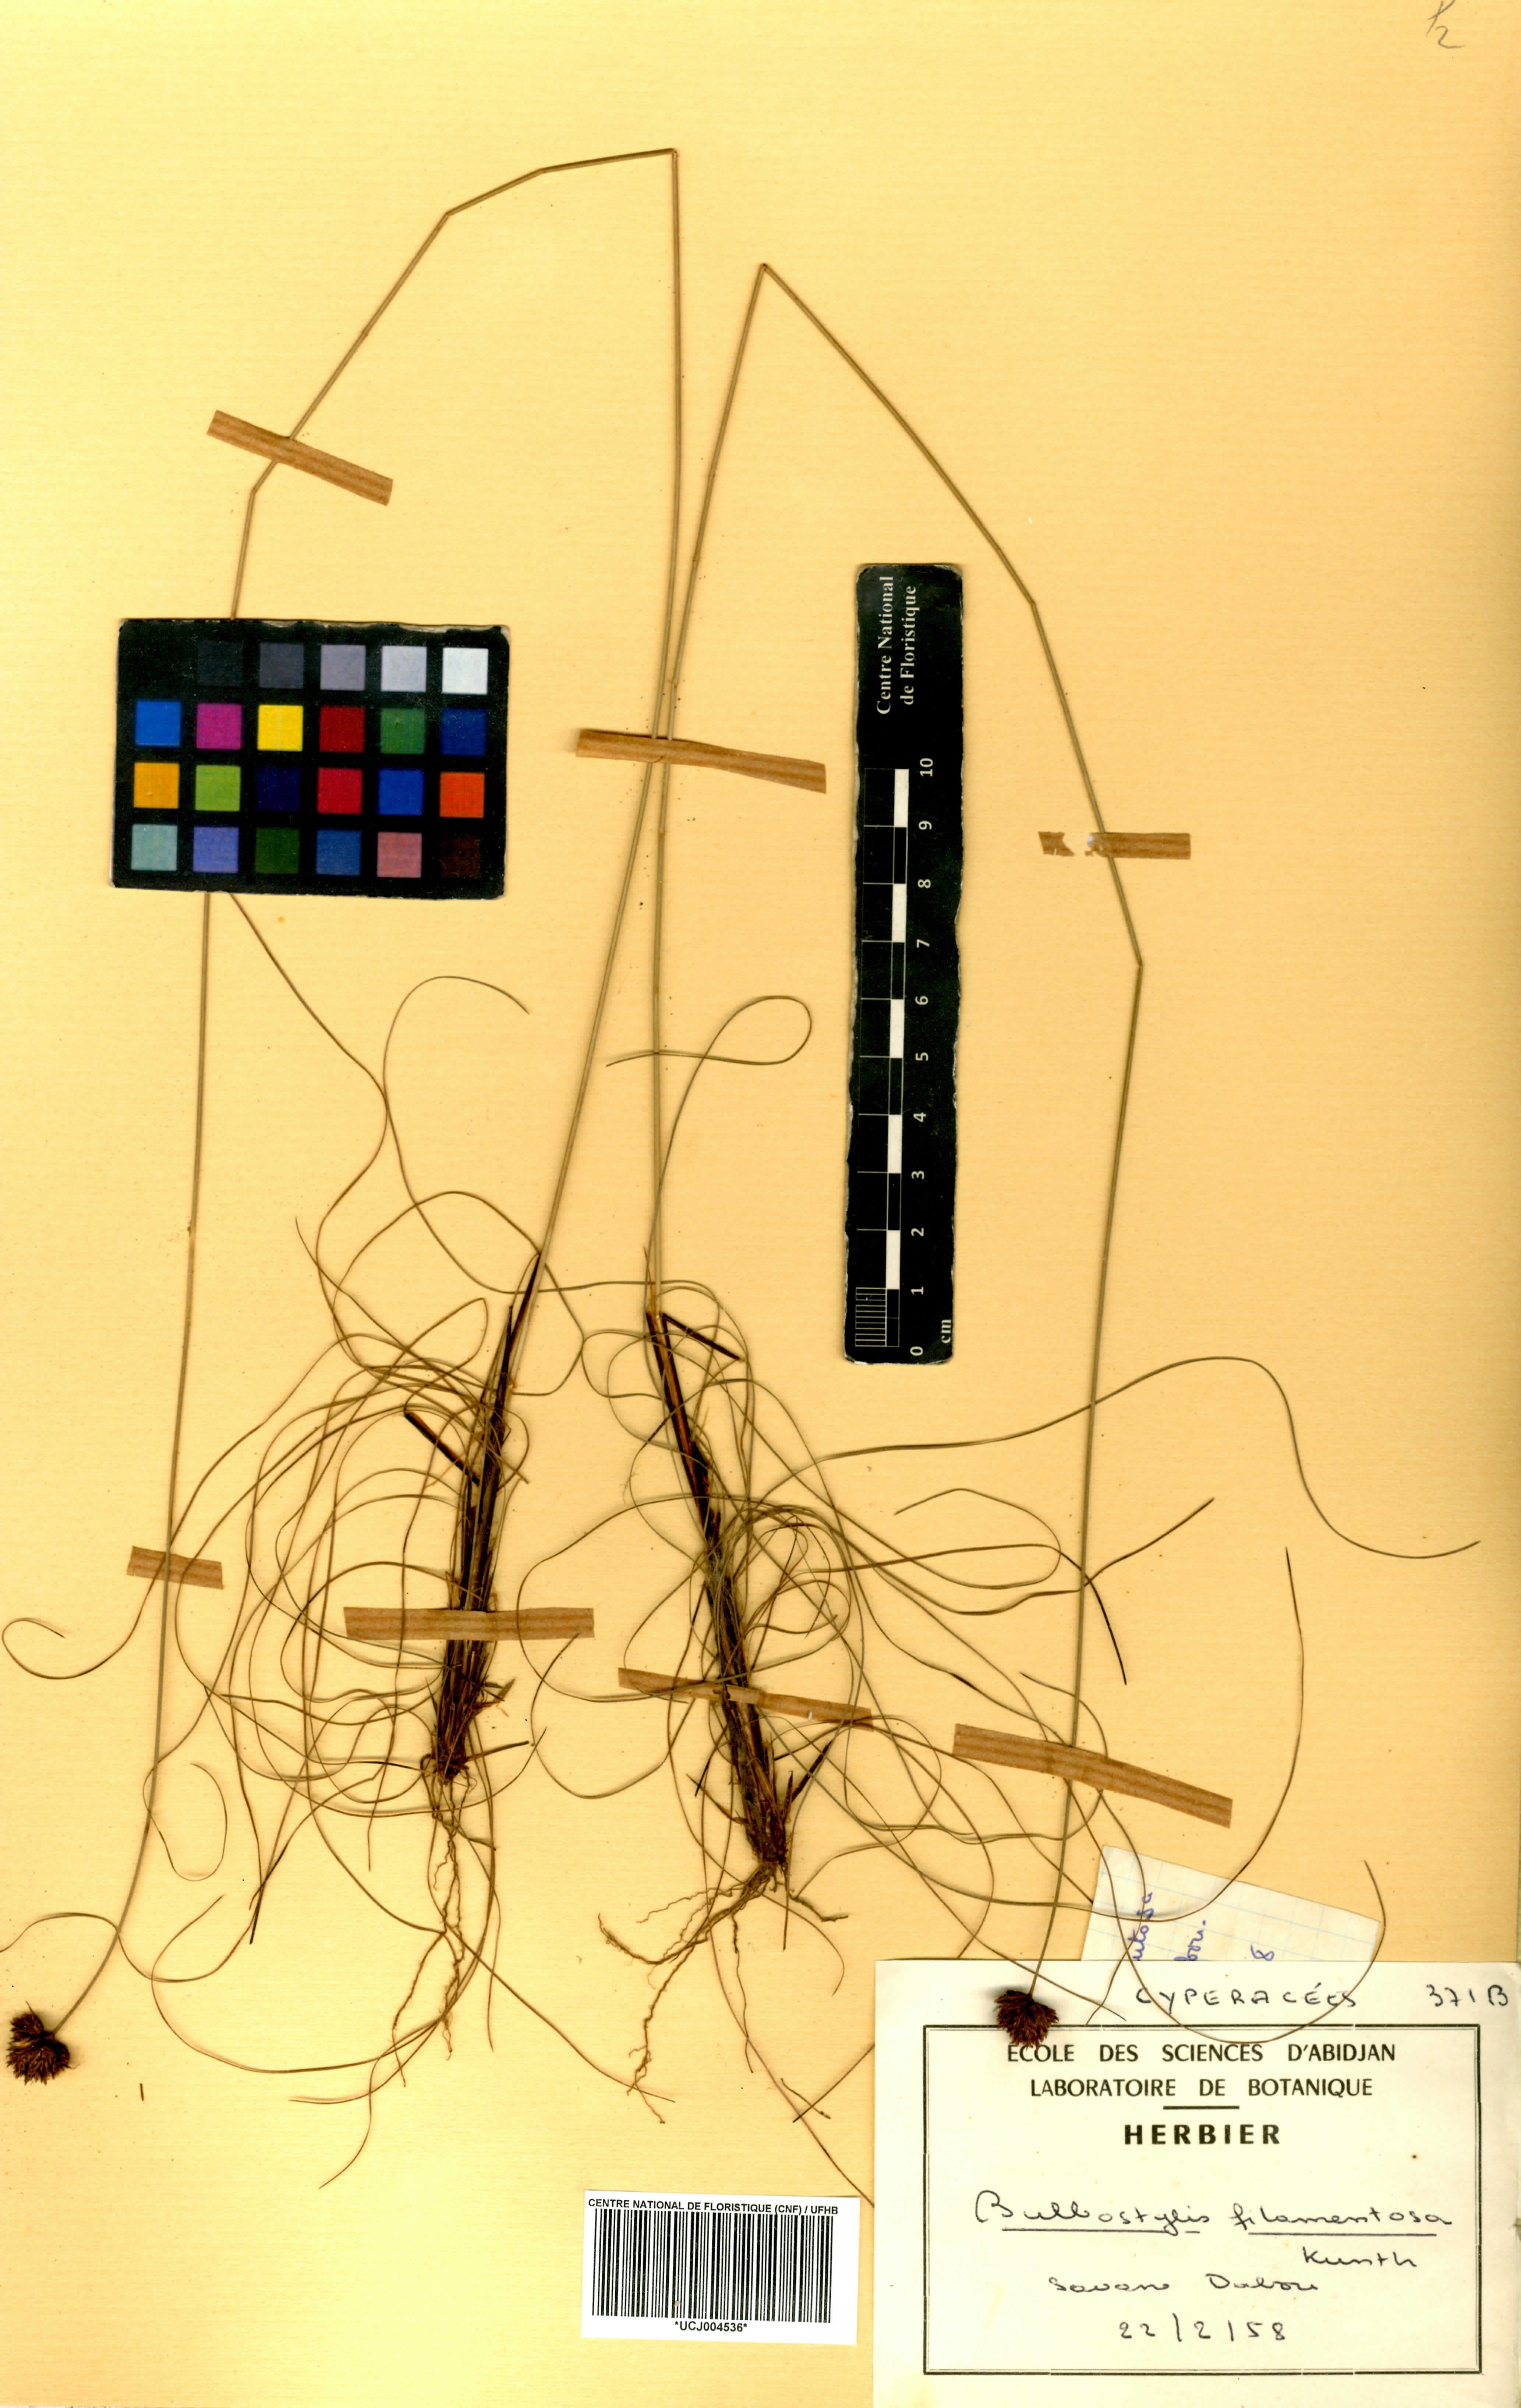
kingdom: Plantae
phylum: Tracheophyta
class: Liliopsida
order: Poales
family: Cyperaceae
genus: Bulbostylis
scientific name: Bulbostylis filamentosa
